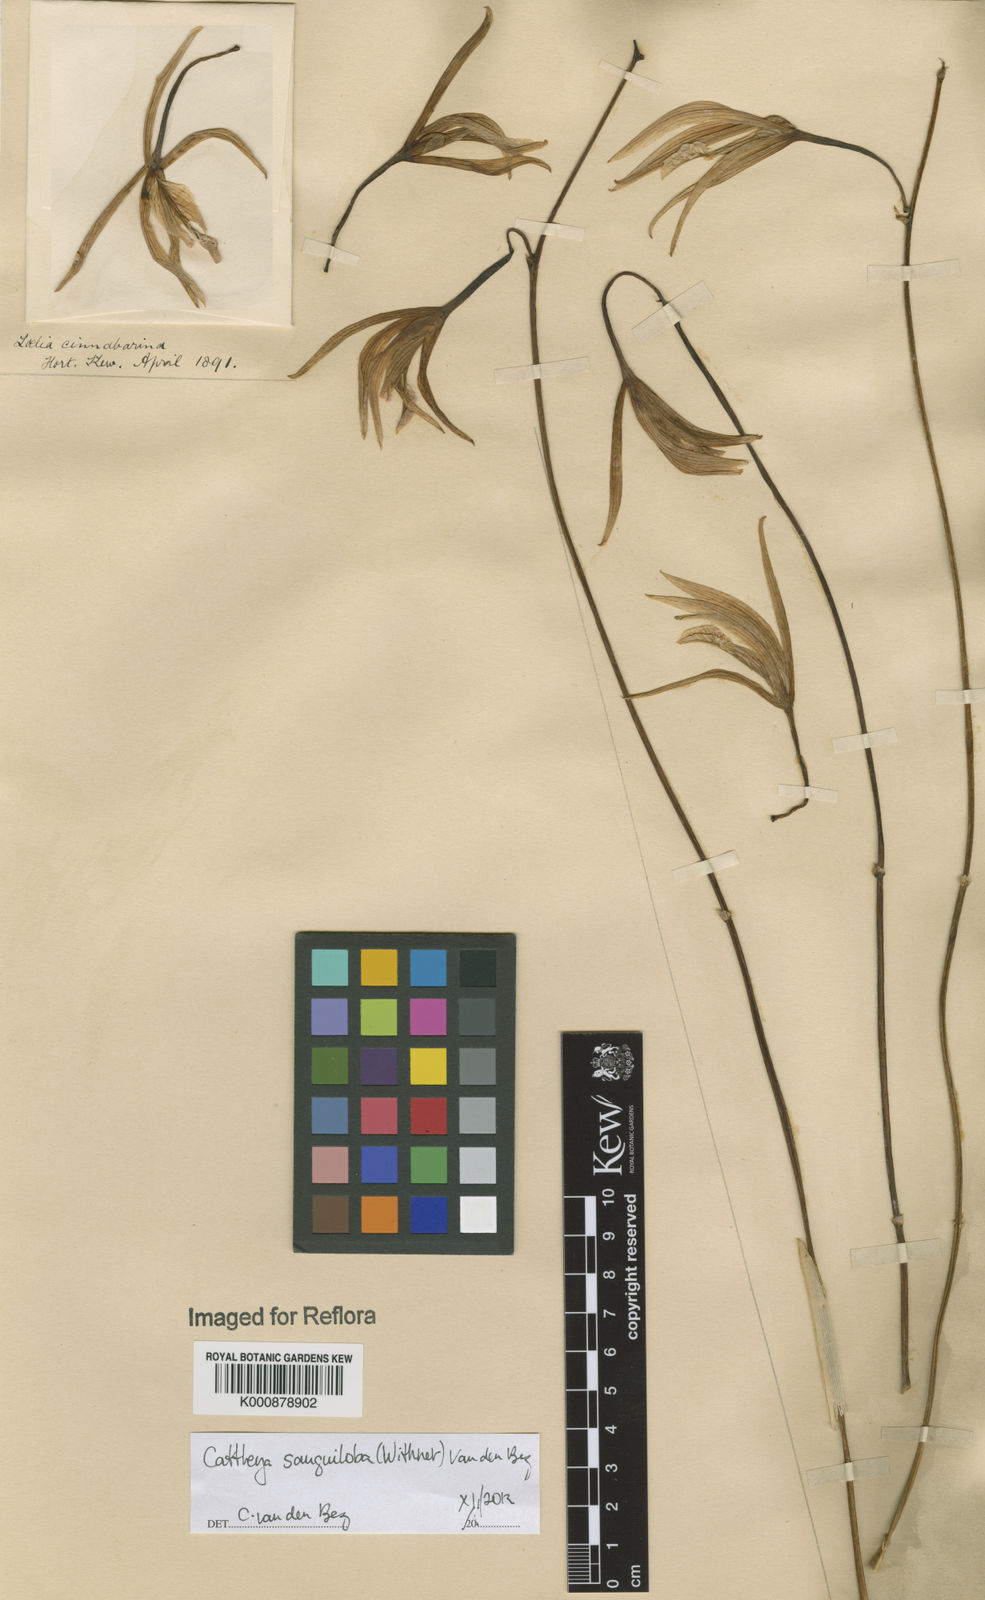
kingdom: Plantae
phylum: Tracheophyta
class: Liliopsida
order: Asparagales
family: Orchidaceae
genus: Cattleya
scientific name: Cattleya sanguiloba
